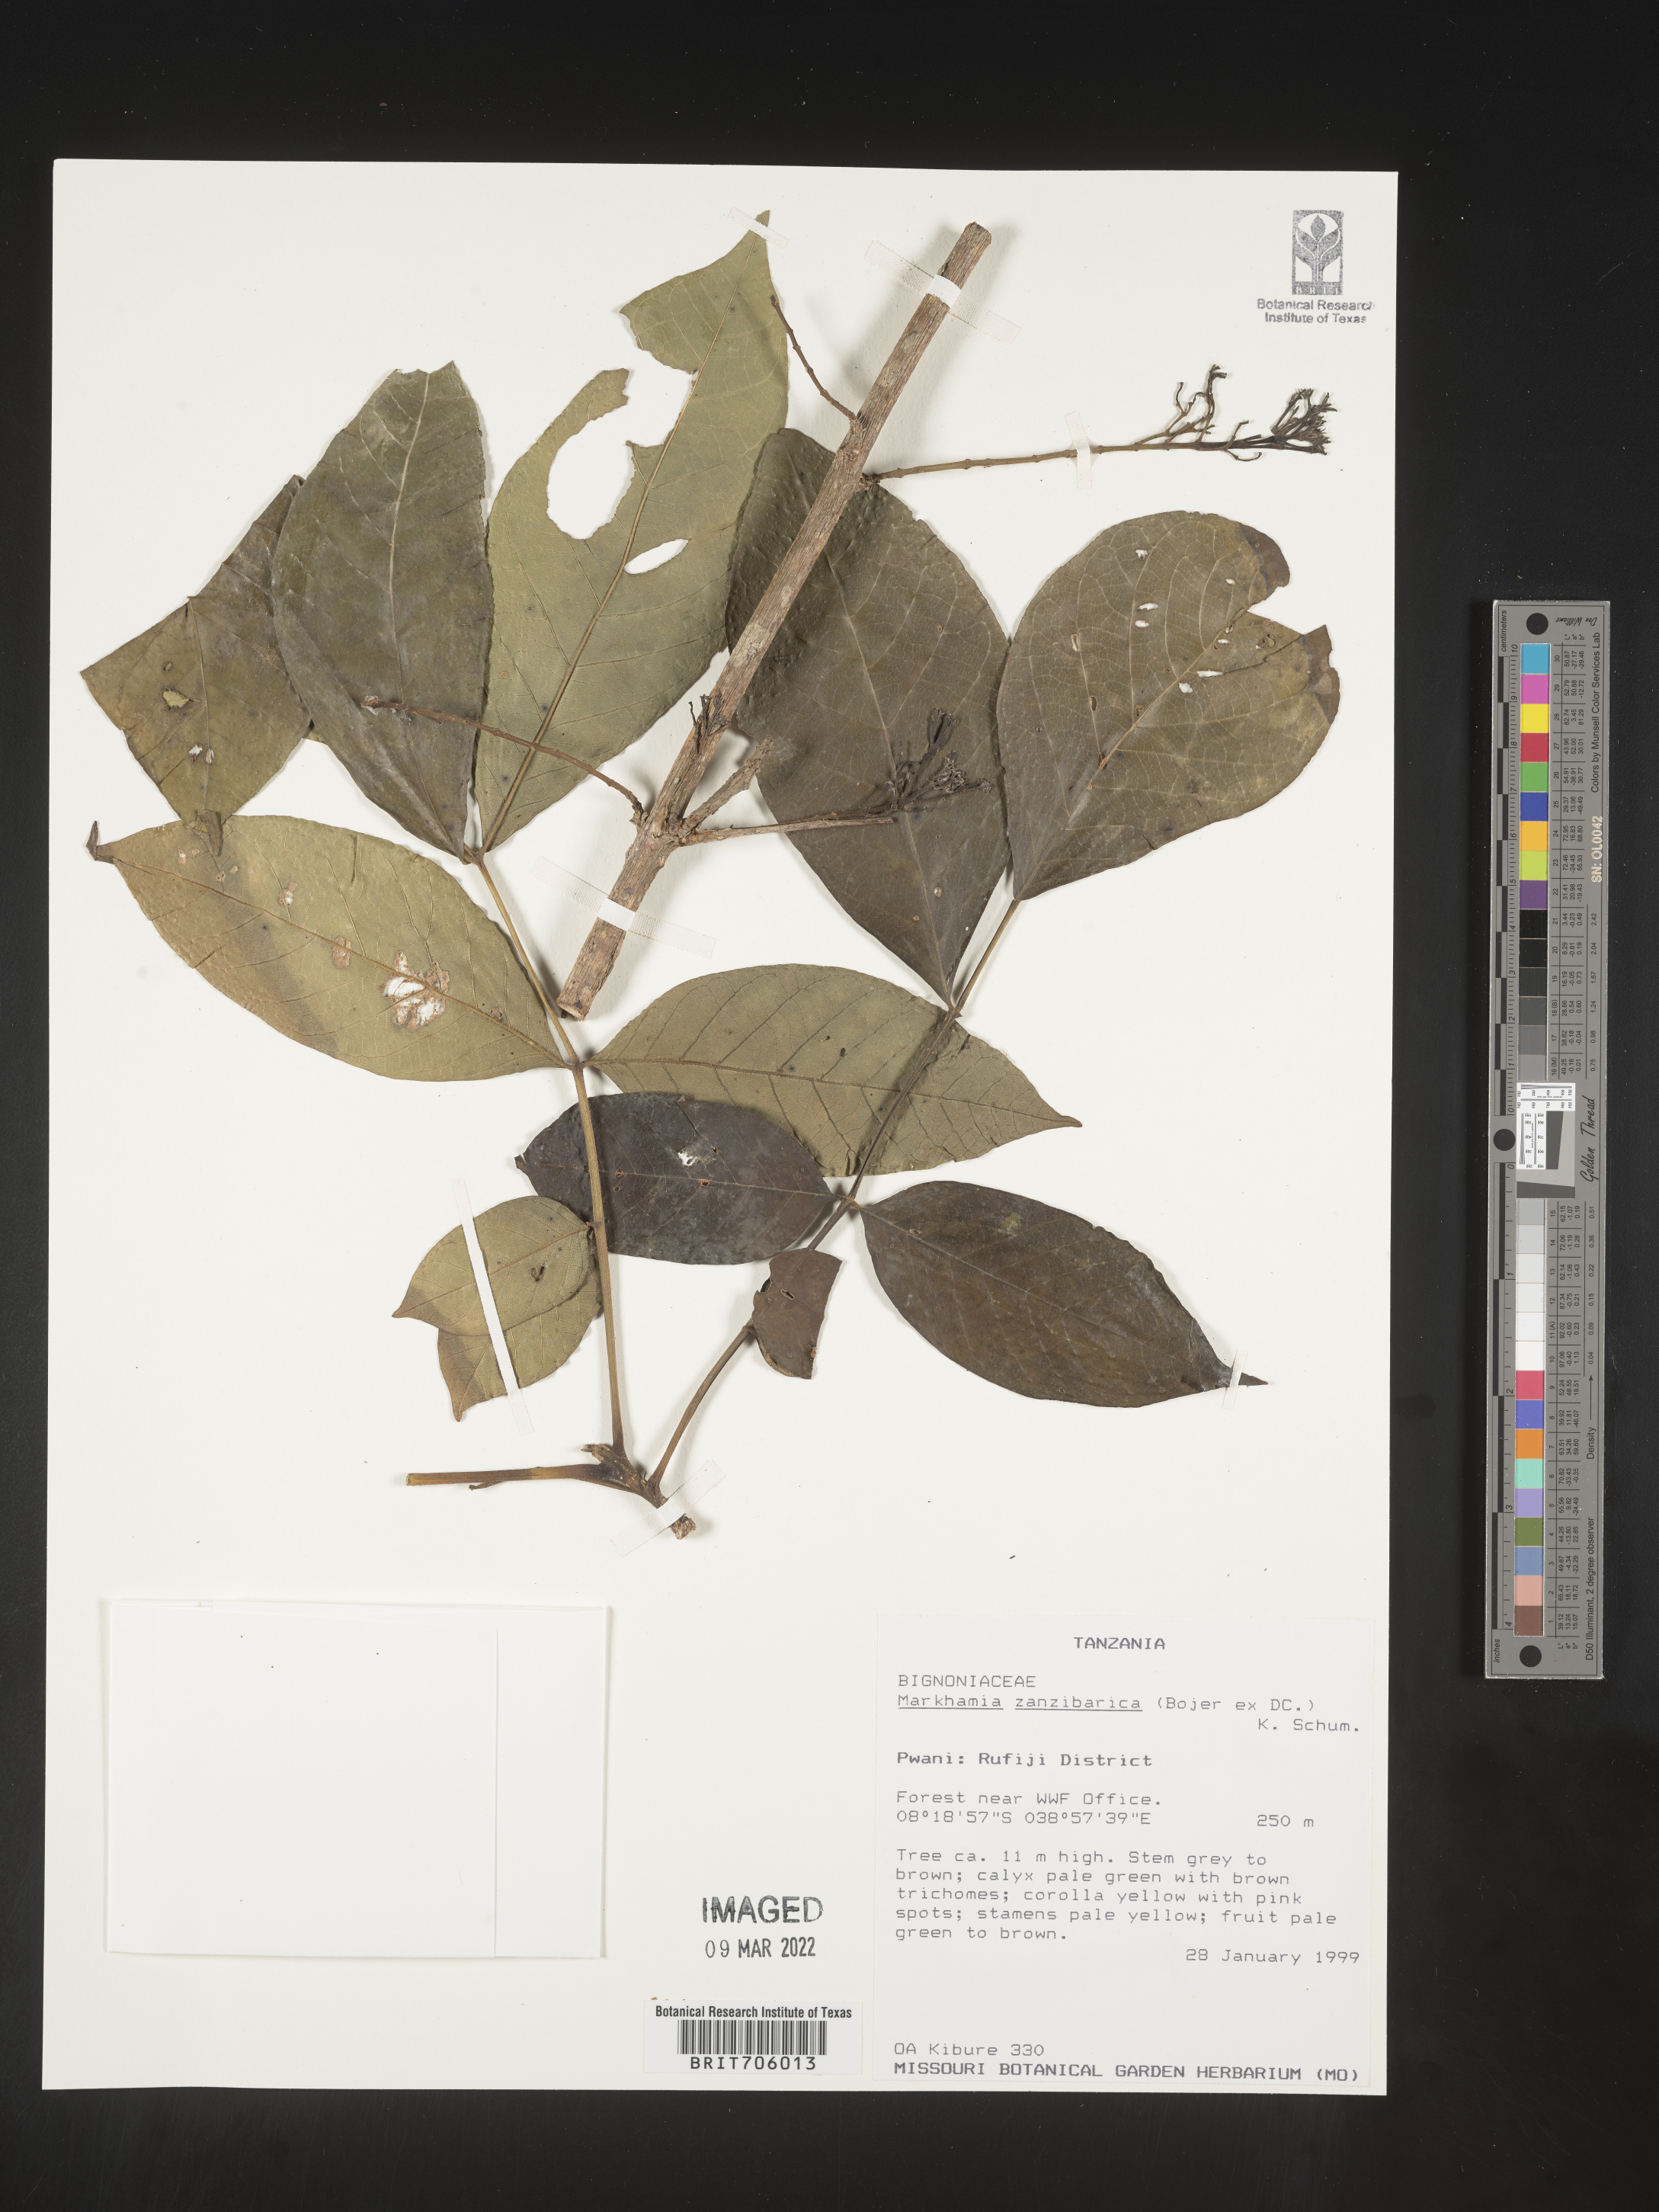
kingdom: Plantae
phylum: Tracheophyta
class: Magnoliopsida
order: Lamiales
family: Bignoniaceae
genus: Markhamia
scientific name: Markhamia
